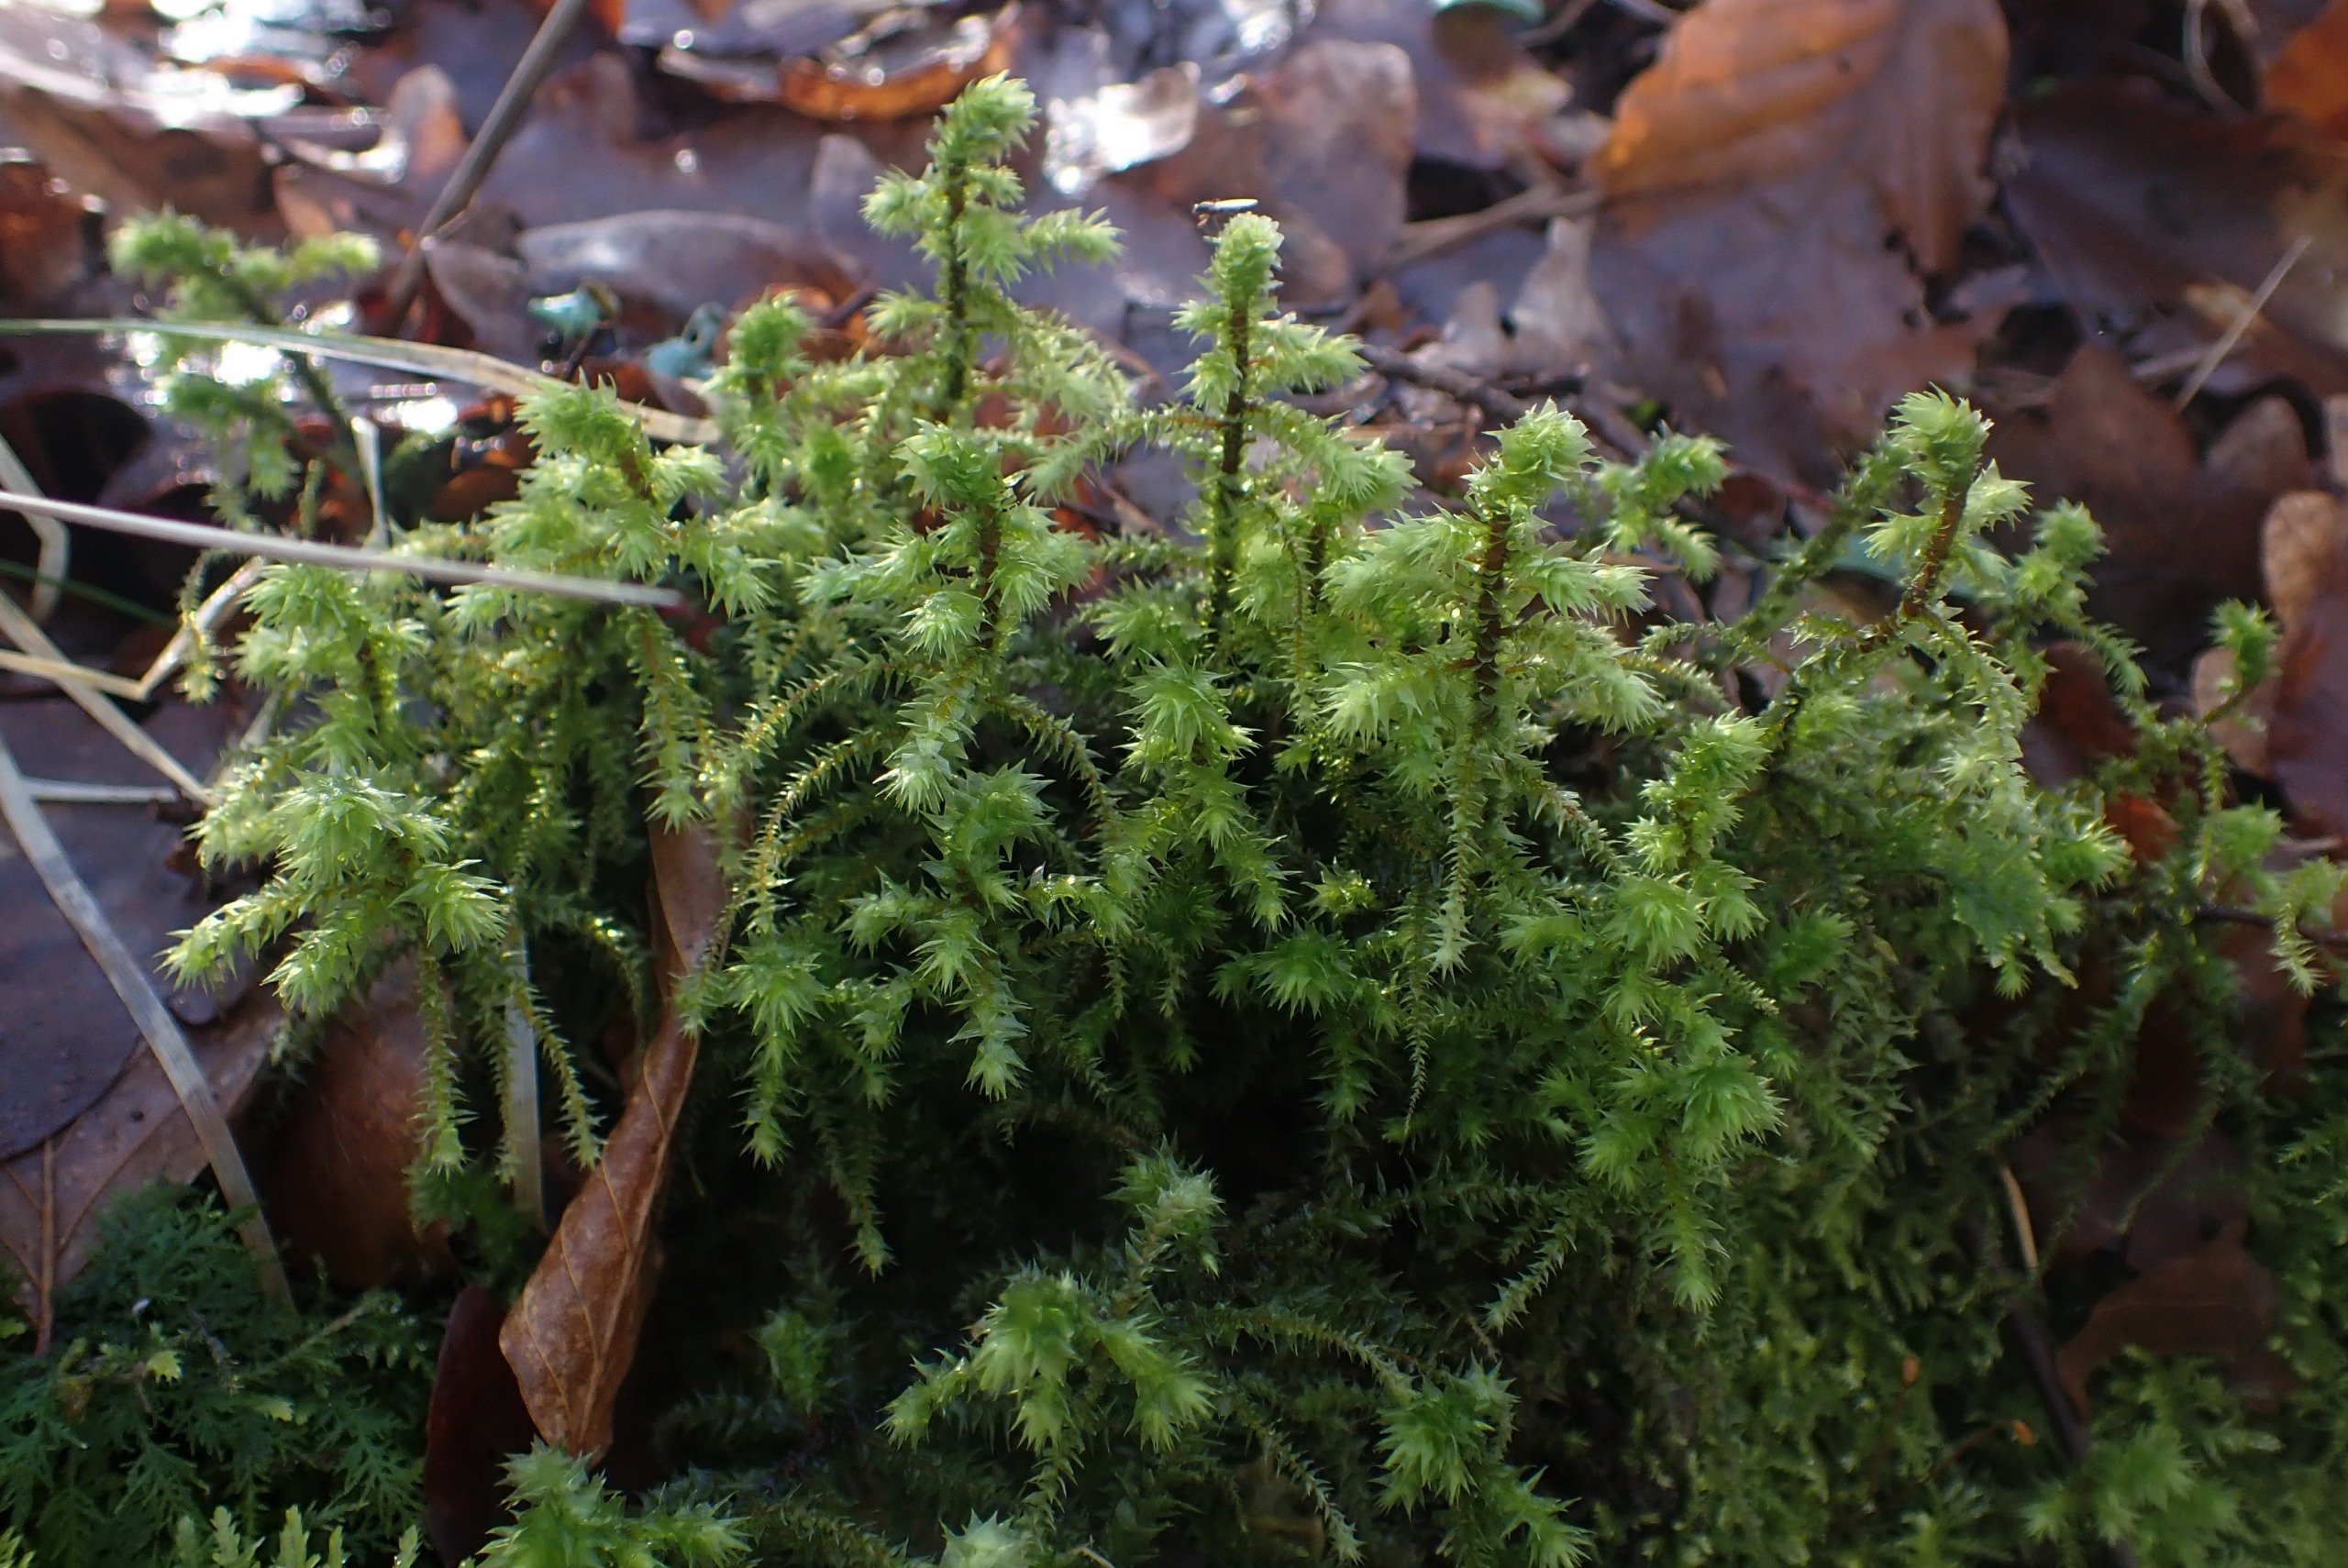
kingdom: Plantae
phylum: Bryophyta
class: Bryopsida
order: Hypnales
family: Hylocomiaceae
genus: Hylocomiadelphus
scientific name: Hylocomiadelphus triquetrus
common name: Stor kransemos
